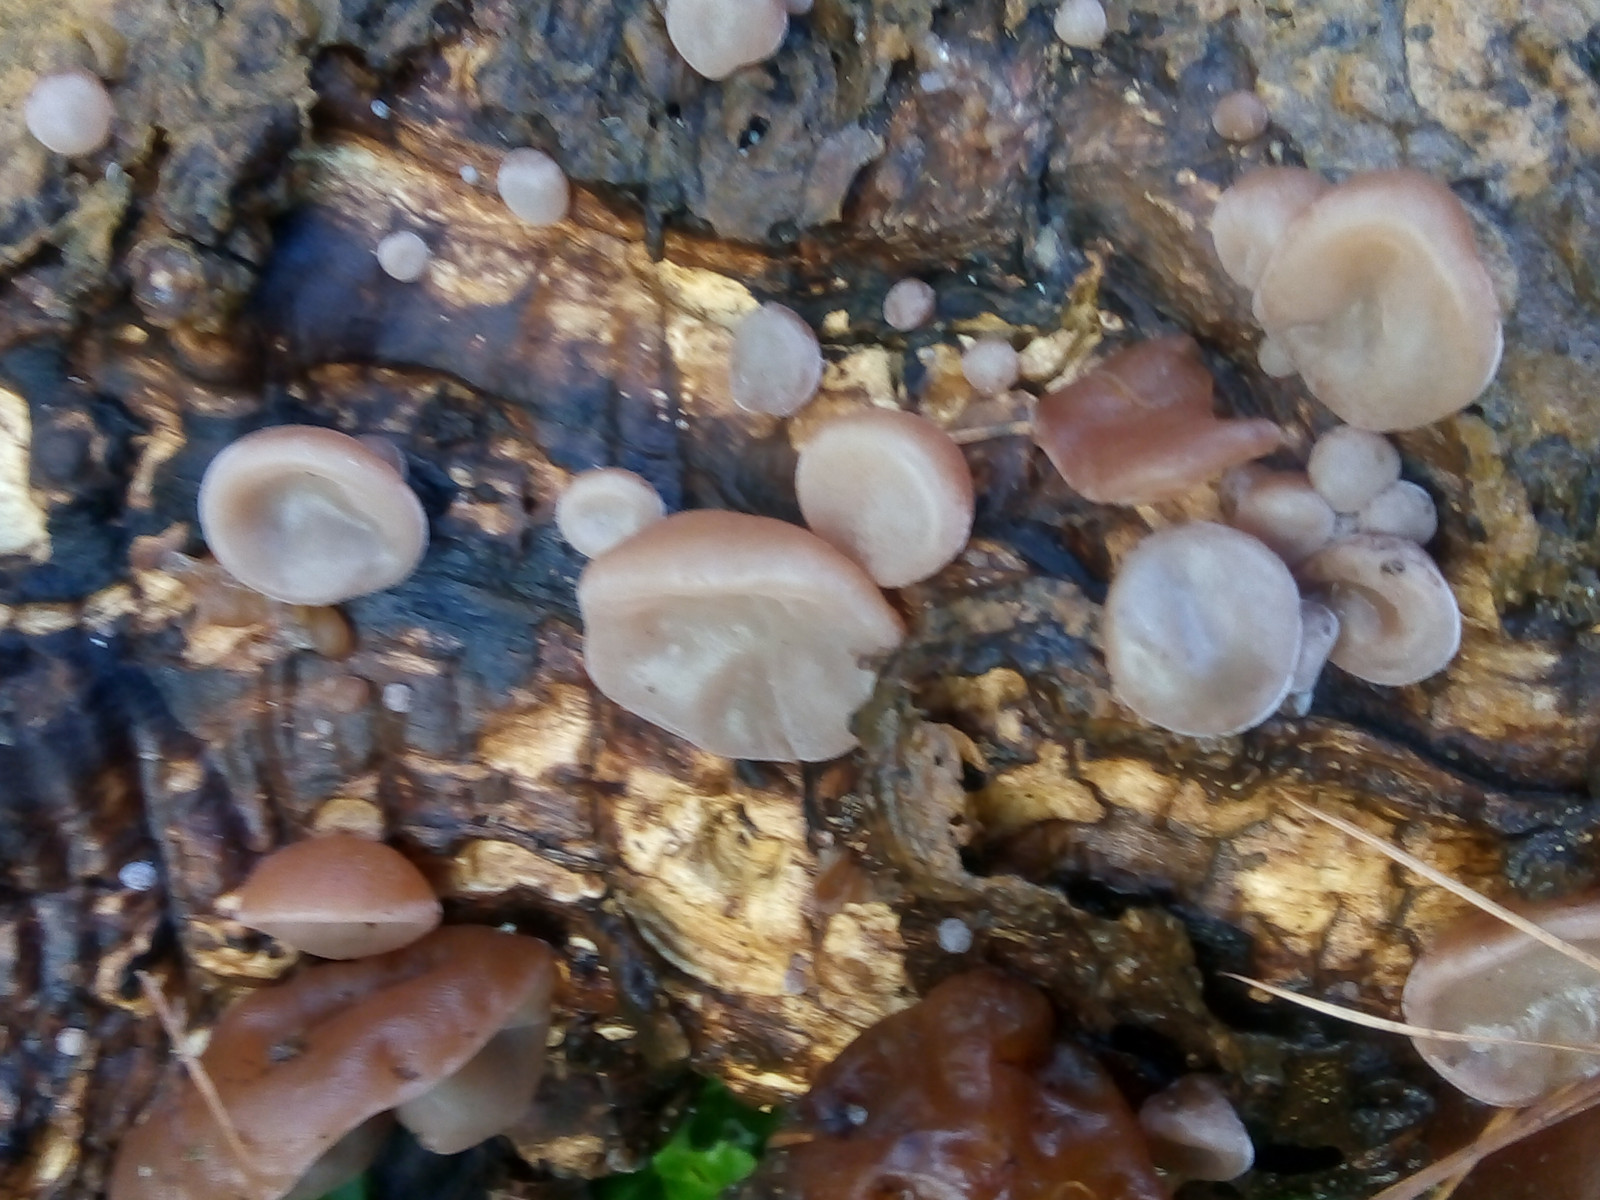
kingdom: Fungi
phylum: Basidiomycota
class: Agaricomycetes
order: Auriculariales
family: Auriculariaceae
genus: Auricularia
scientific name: Auricularia auricula-judae
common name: almindelig judasøre
